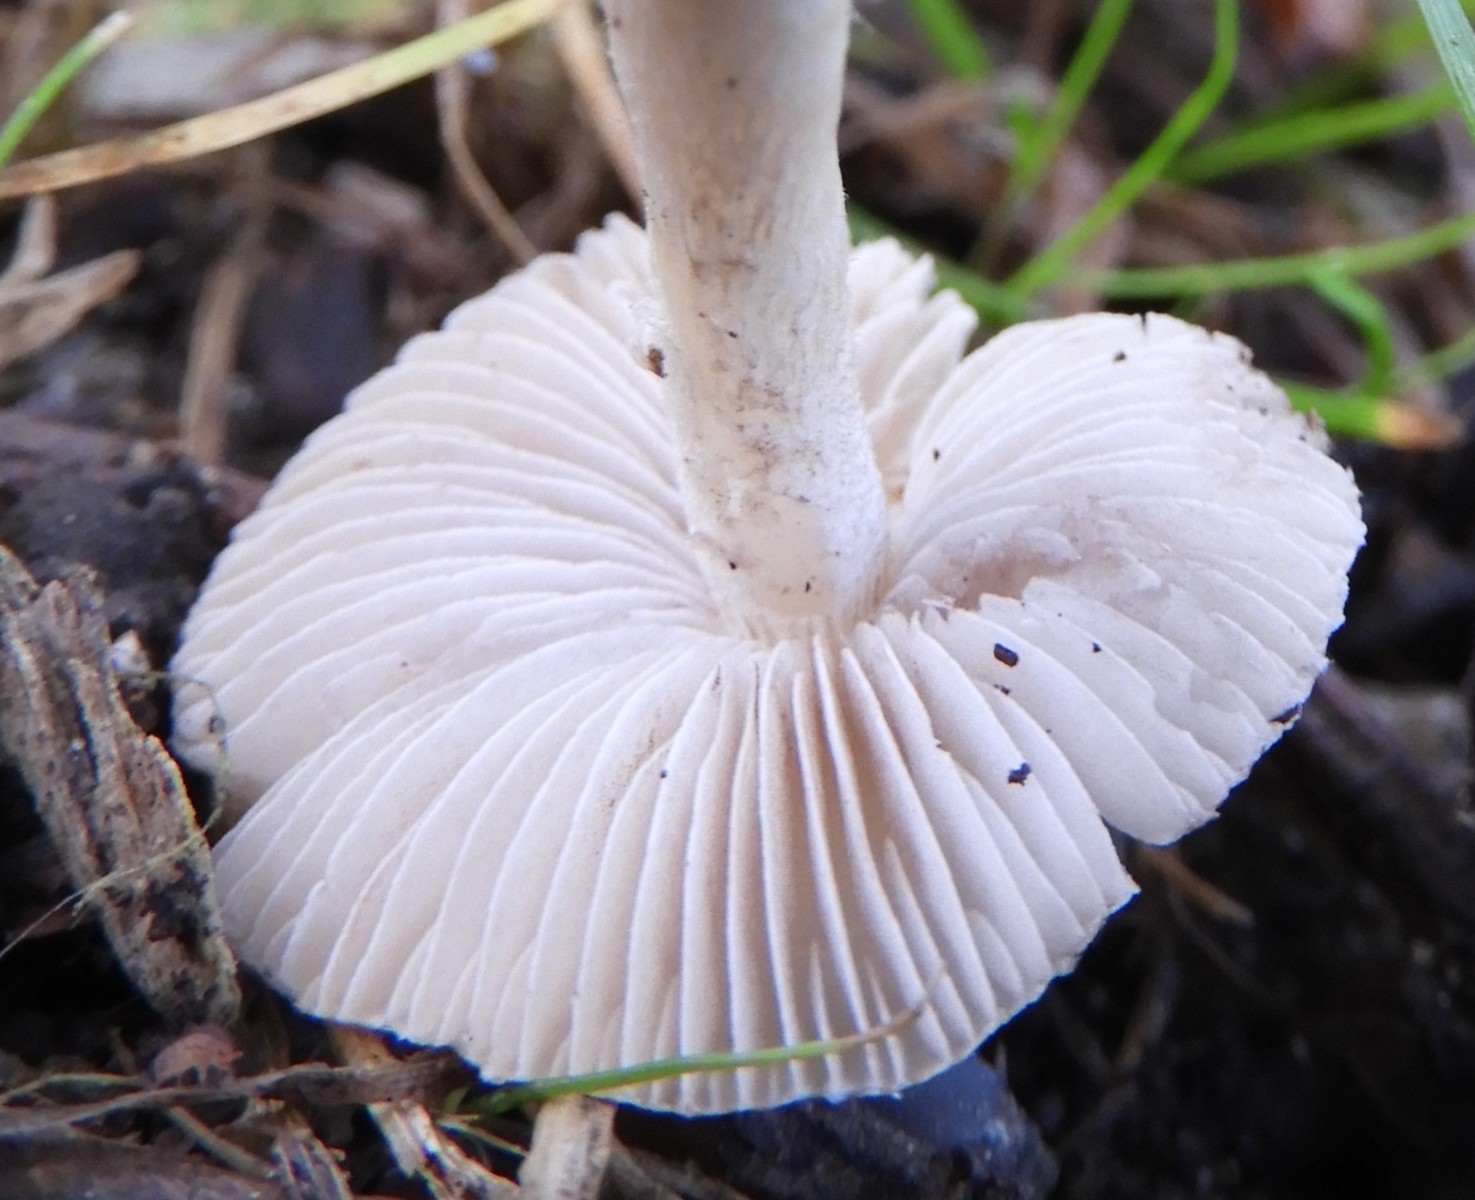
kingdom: Fungi
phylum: Basidiomycota
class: Agaricomycetes
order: Agaricales
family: Inocybaceae
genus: Inocybe
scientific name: Inocybe
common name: almindelig trævlhat
